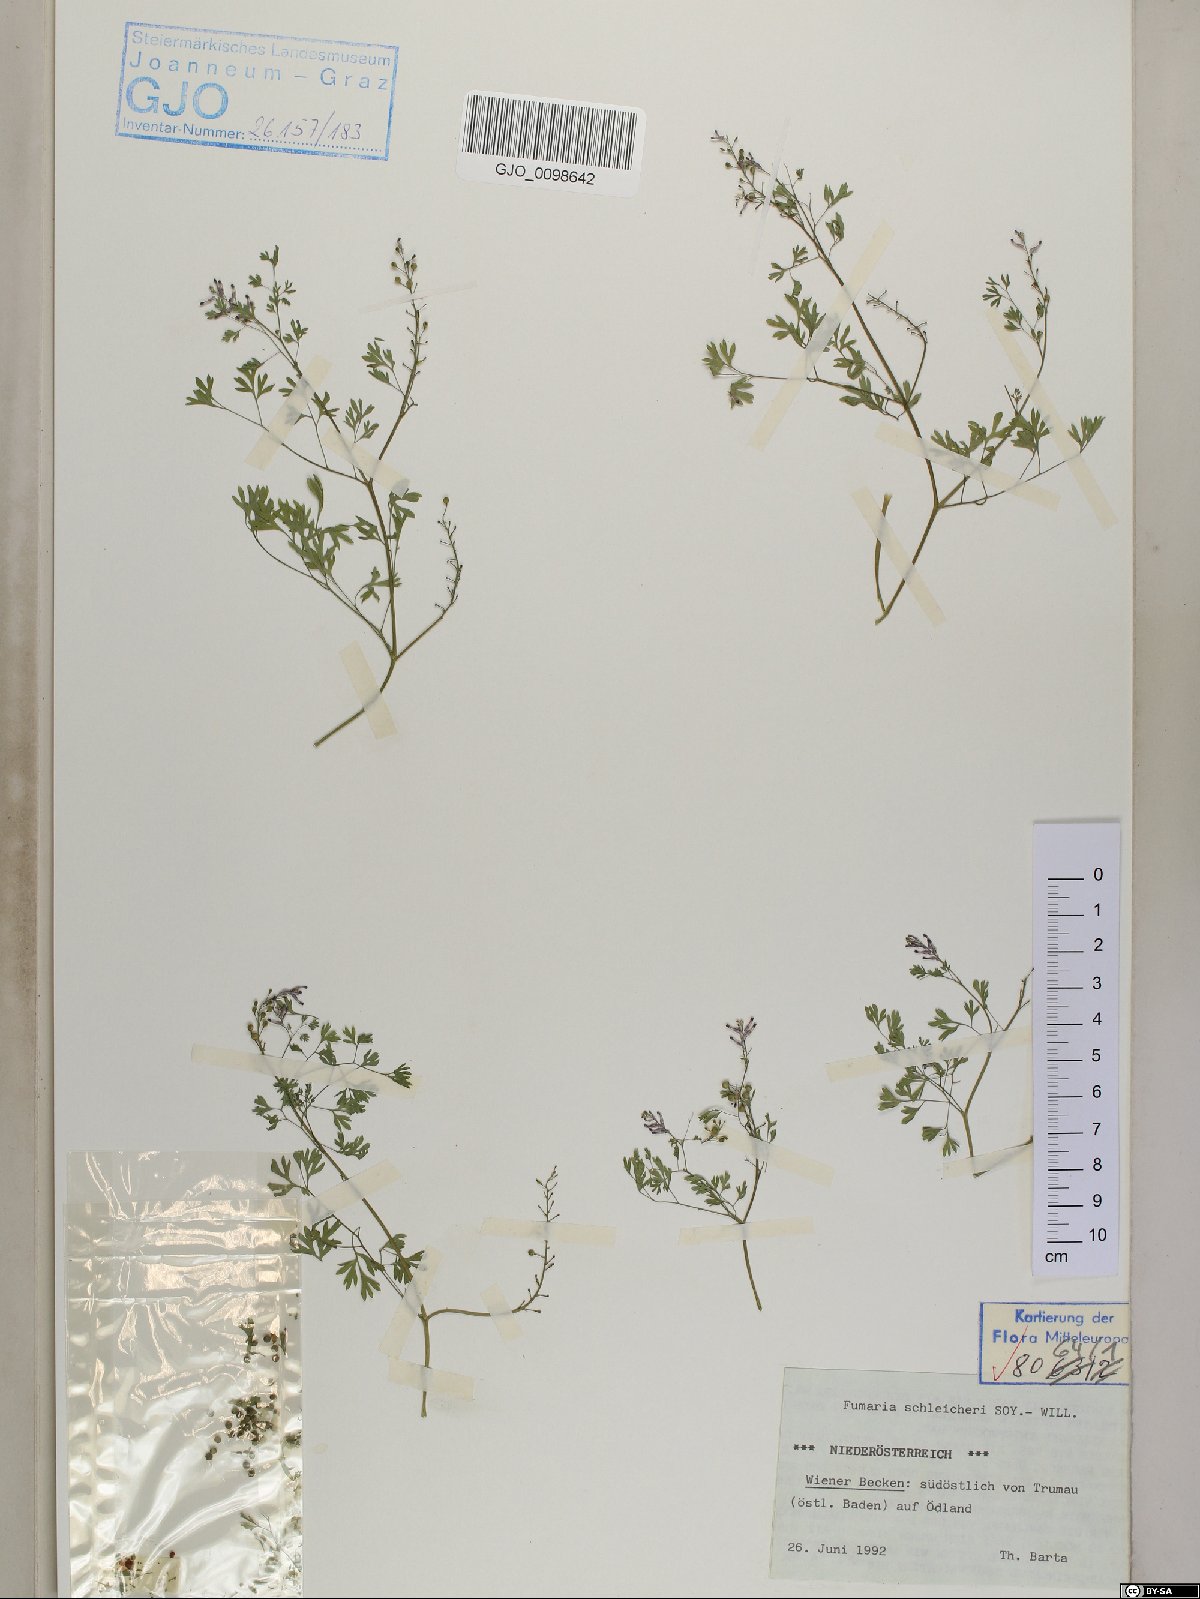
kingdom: Plantae
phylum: Tracheophyta
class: Magnoliopsida
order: Ranunculales
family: Papaveraceae
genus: Fumaria
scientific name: Fumaria schleicheri
